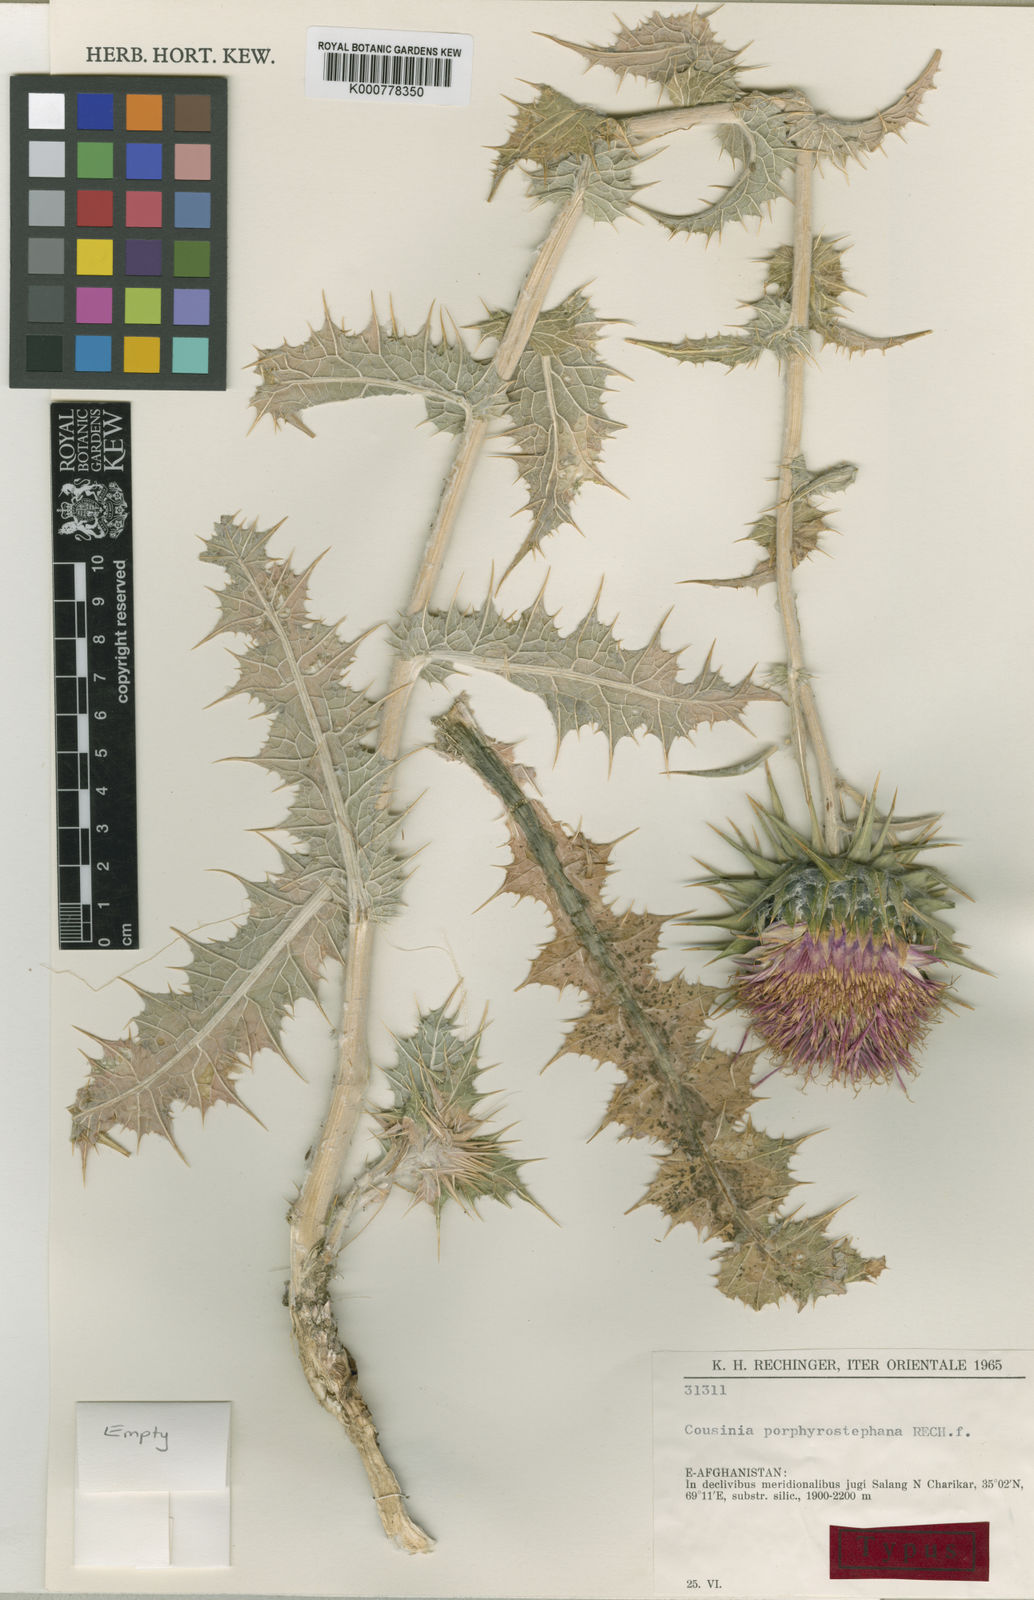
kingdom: Plantae
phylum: Tracheophyta
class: Magnoliopsida
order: Asterales
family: Asteraceae
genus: Cousinia
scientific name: Cousinia porphyrostephana
